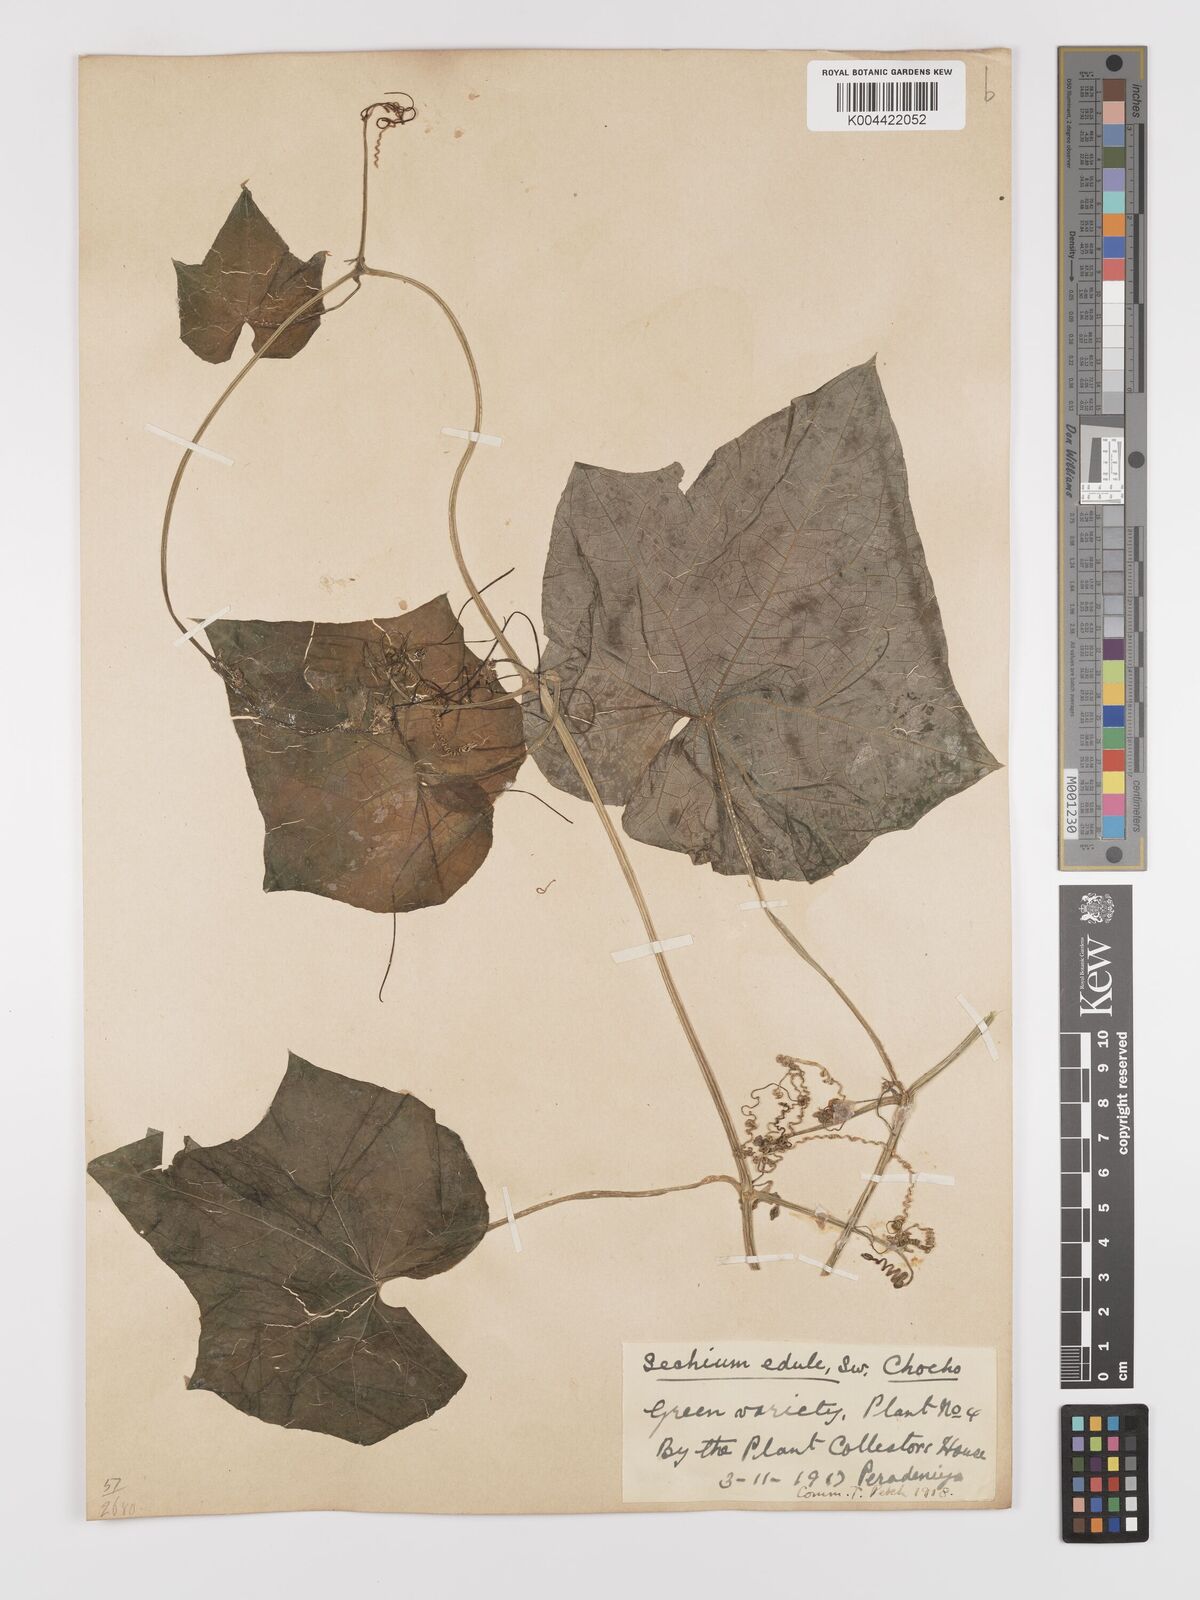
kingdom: Plantae
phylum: Tracheophyta
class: Magnoliopsida
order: Cucurbitales
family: Cucurbitaceae
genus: Sechium
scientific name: Sechium edule
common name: Chayote
